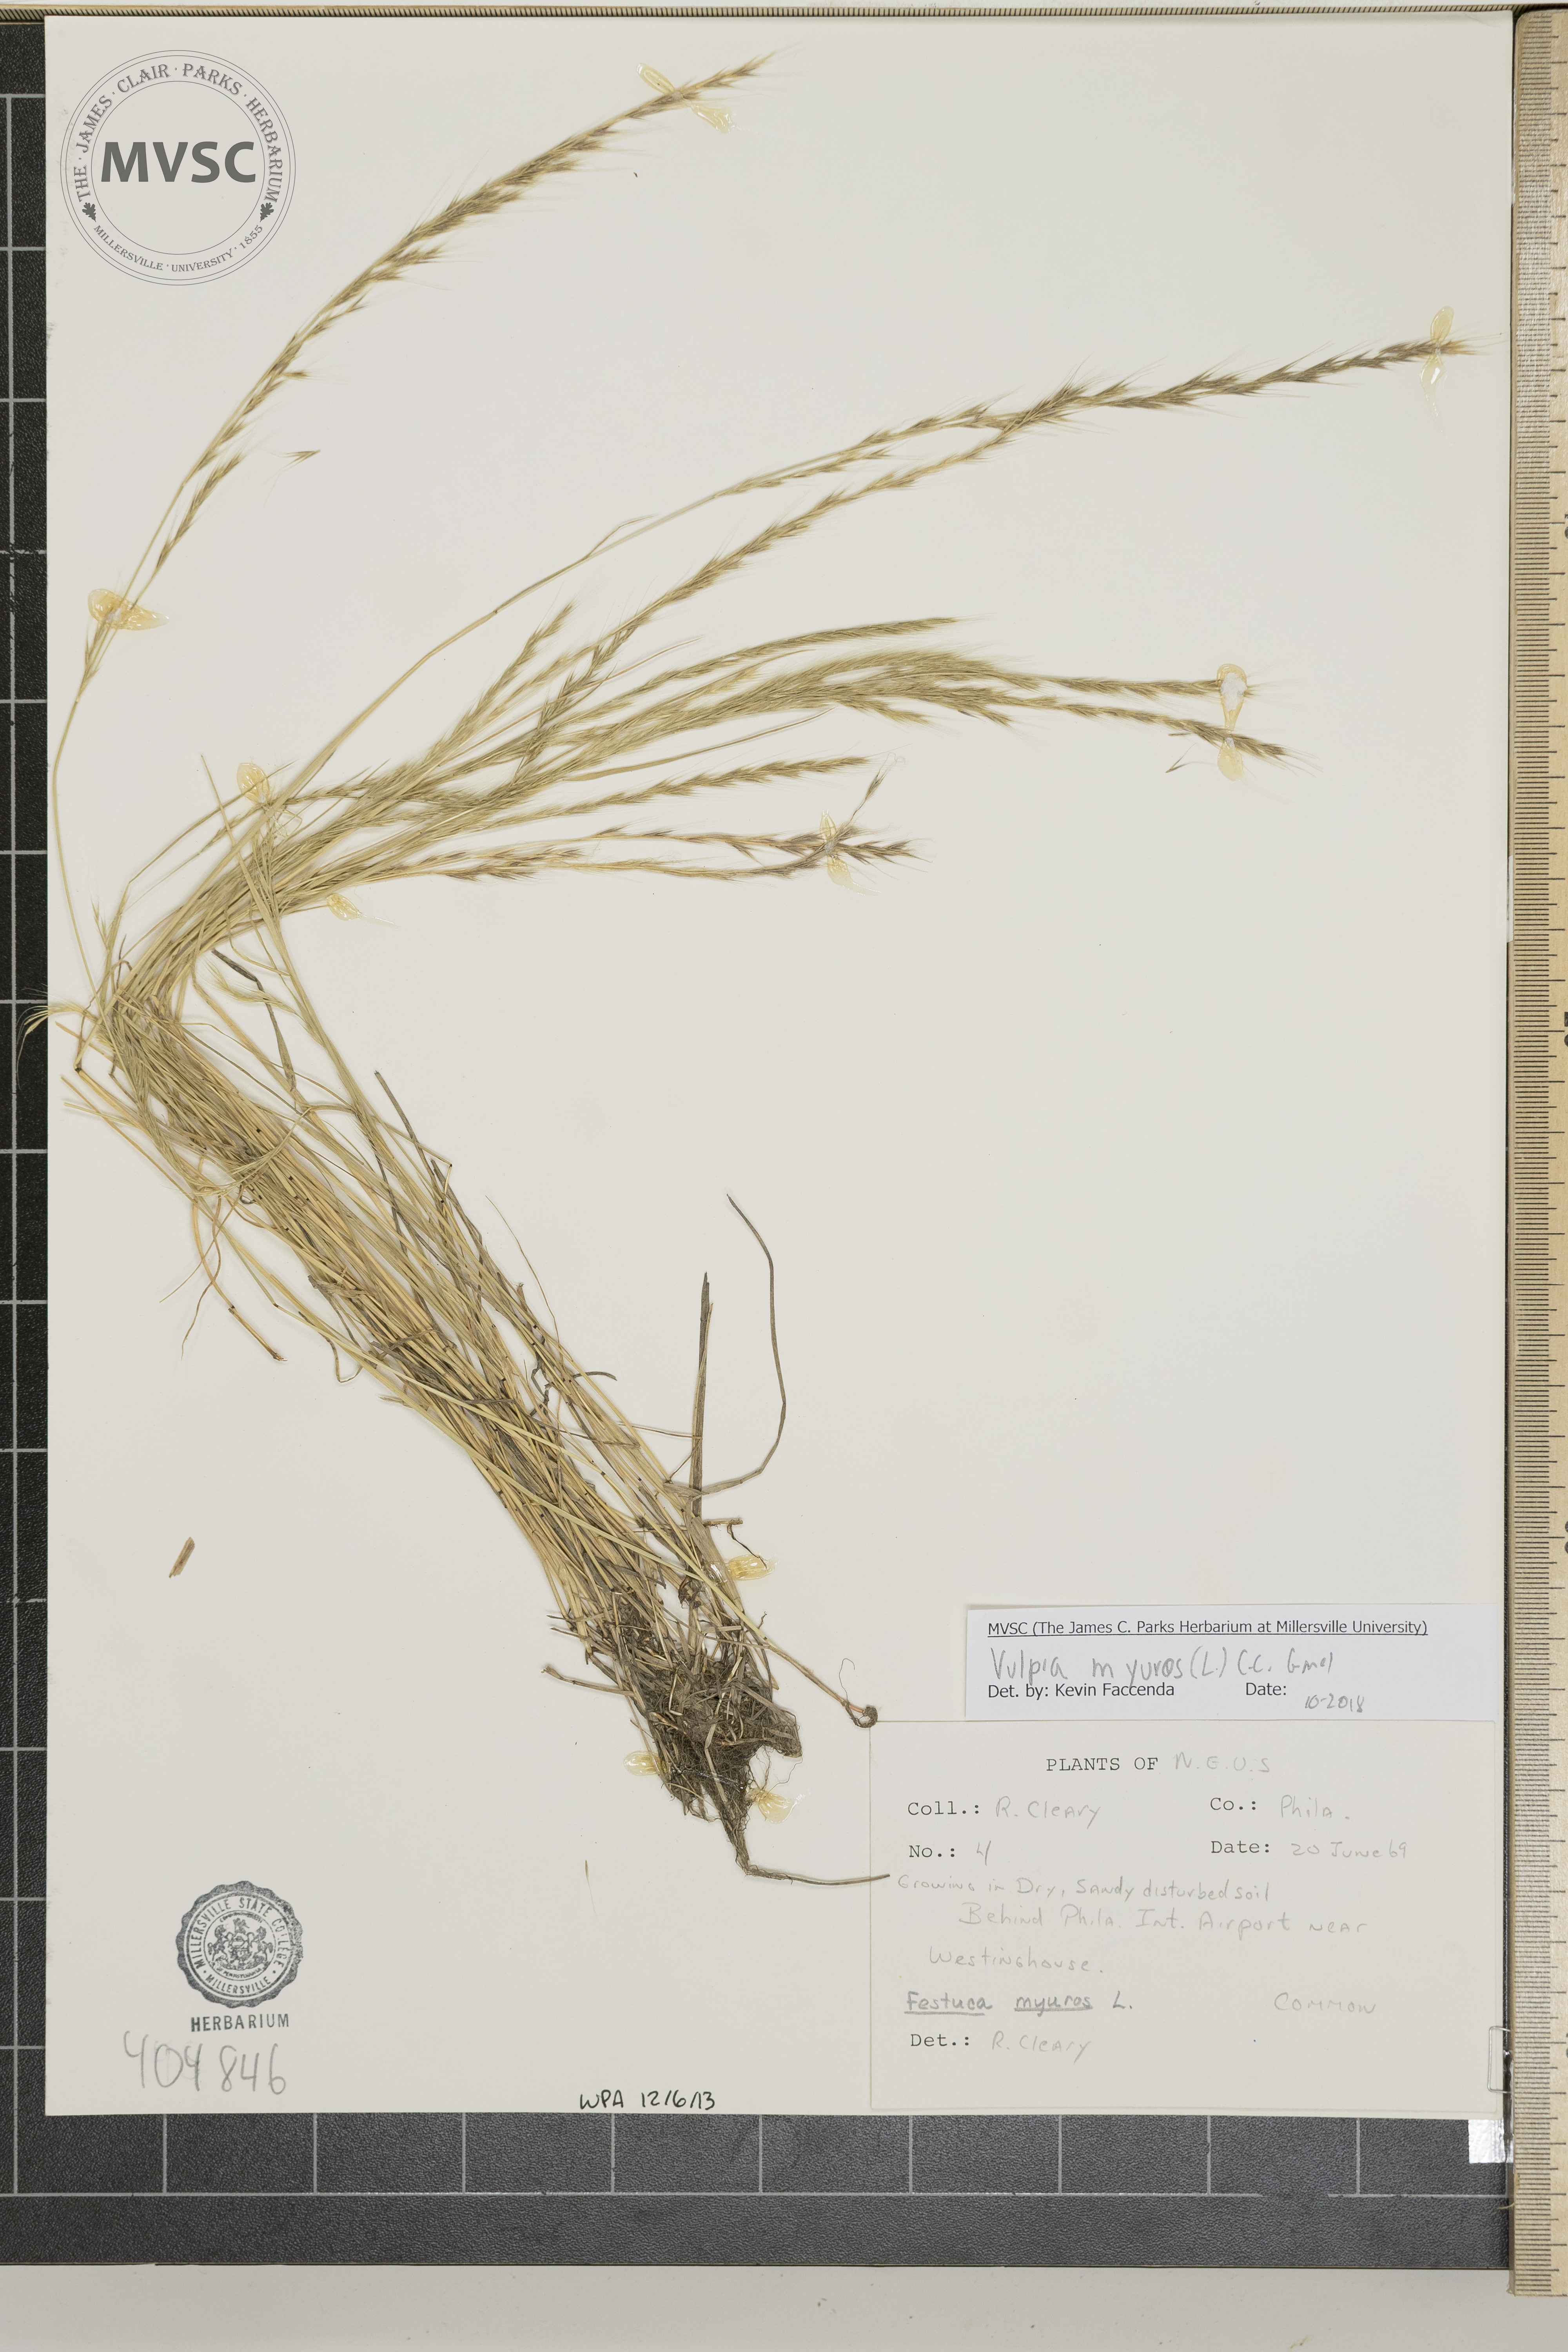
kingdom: Plantae
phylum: Tracheophyta
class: Liliopsida
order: Poales
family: Poaceae
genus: Festuca
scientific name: Festuca myuros
